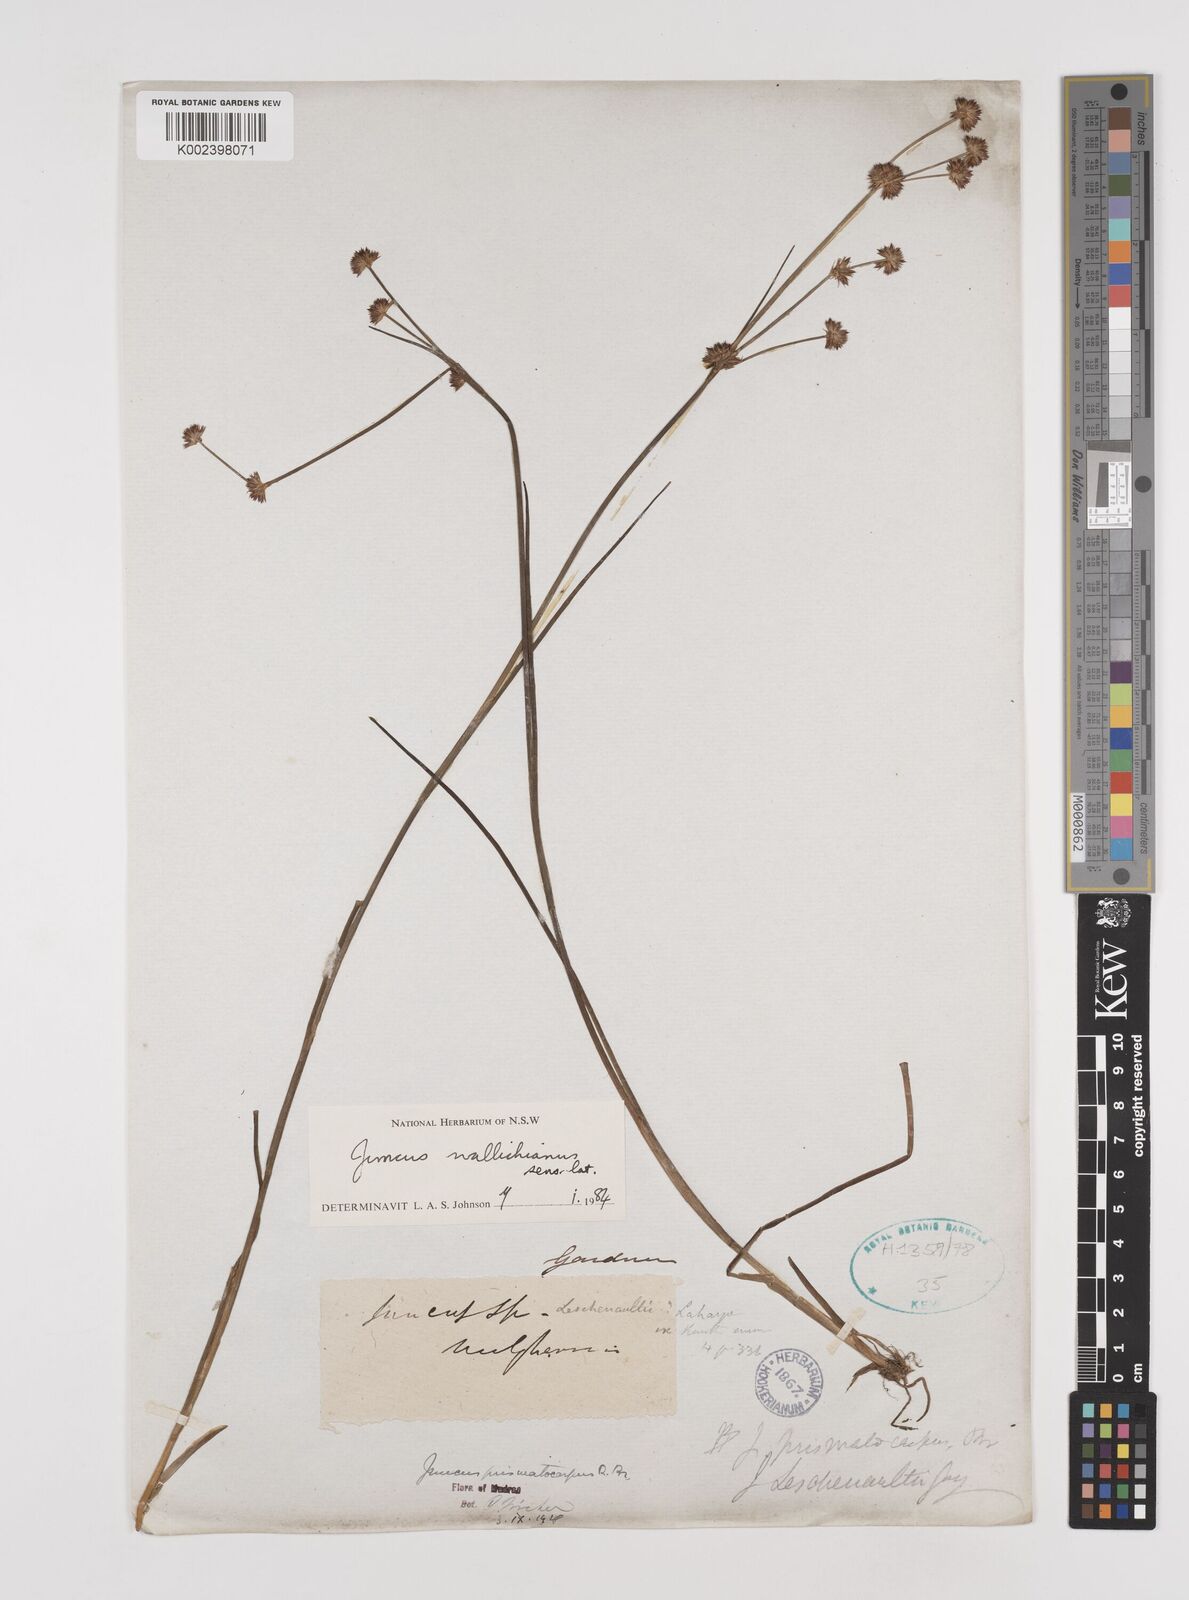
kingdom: Plantae
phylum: Tracheophyta
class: Liliopsida
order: Poales
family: Juncaceae
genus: Juncus
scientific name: Juncus wallichianus
